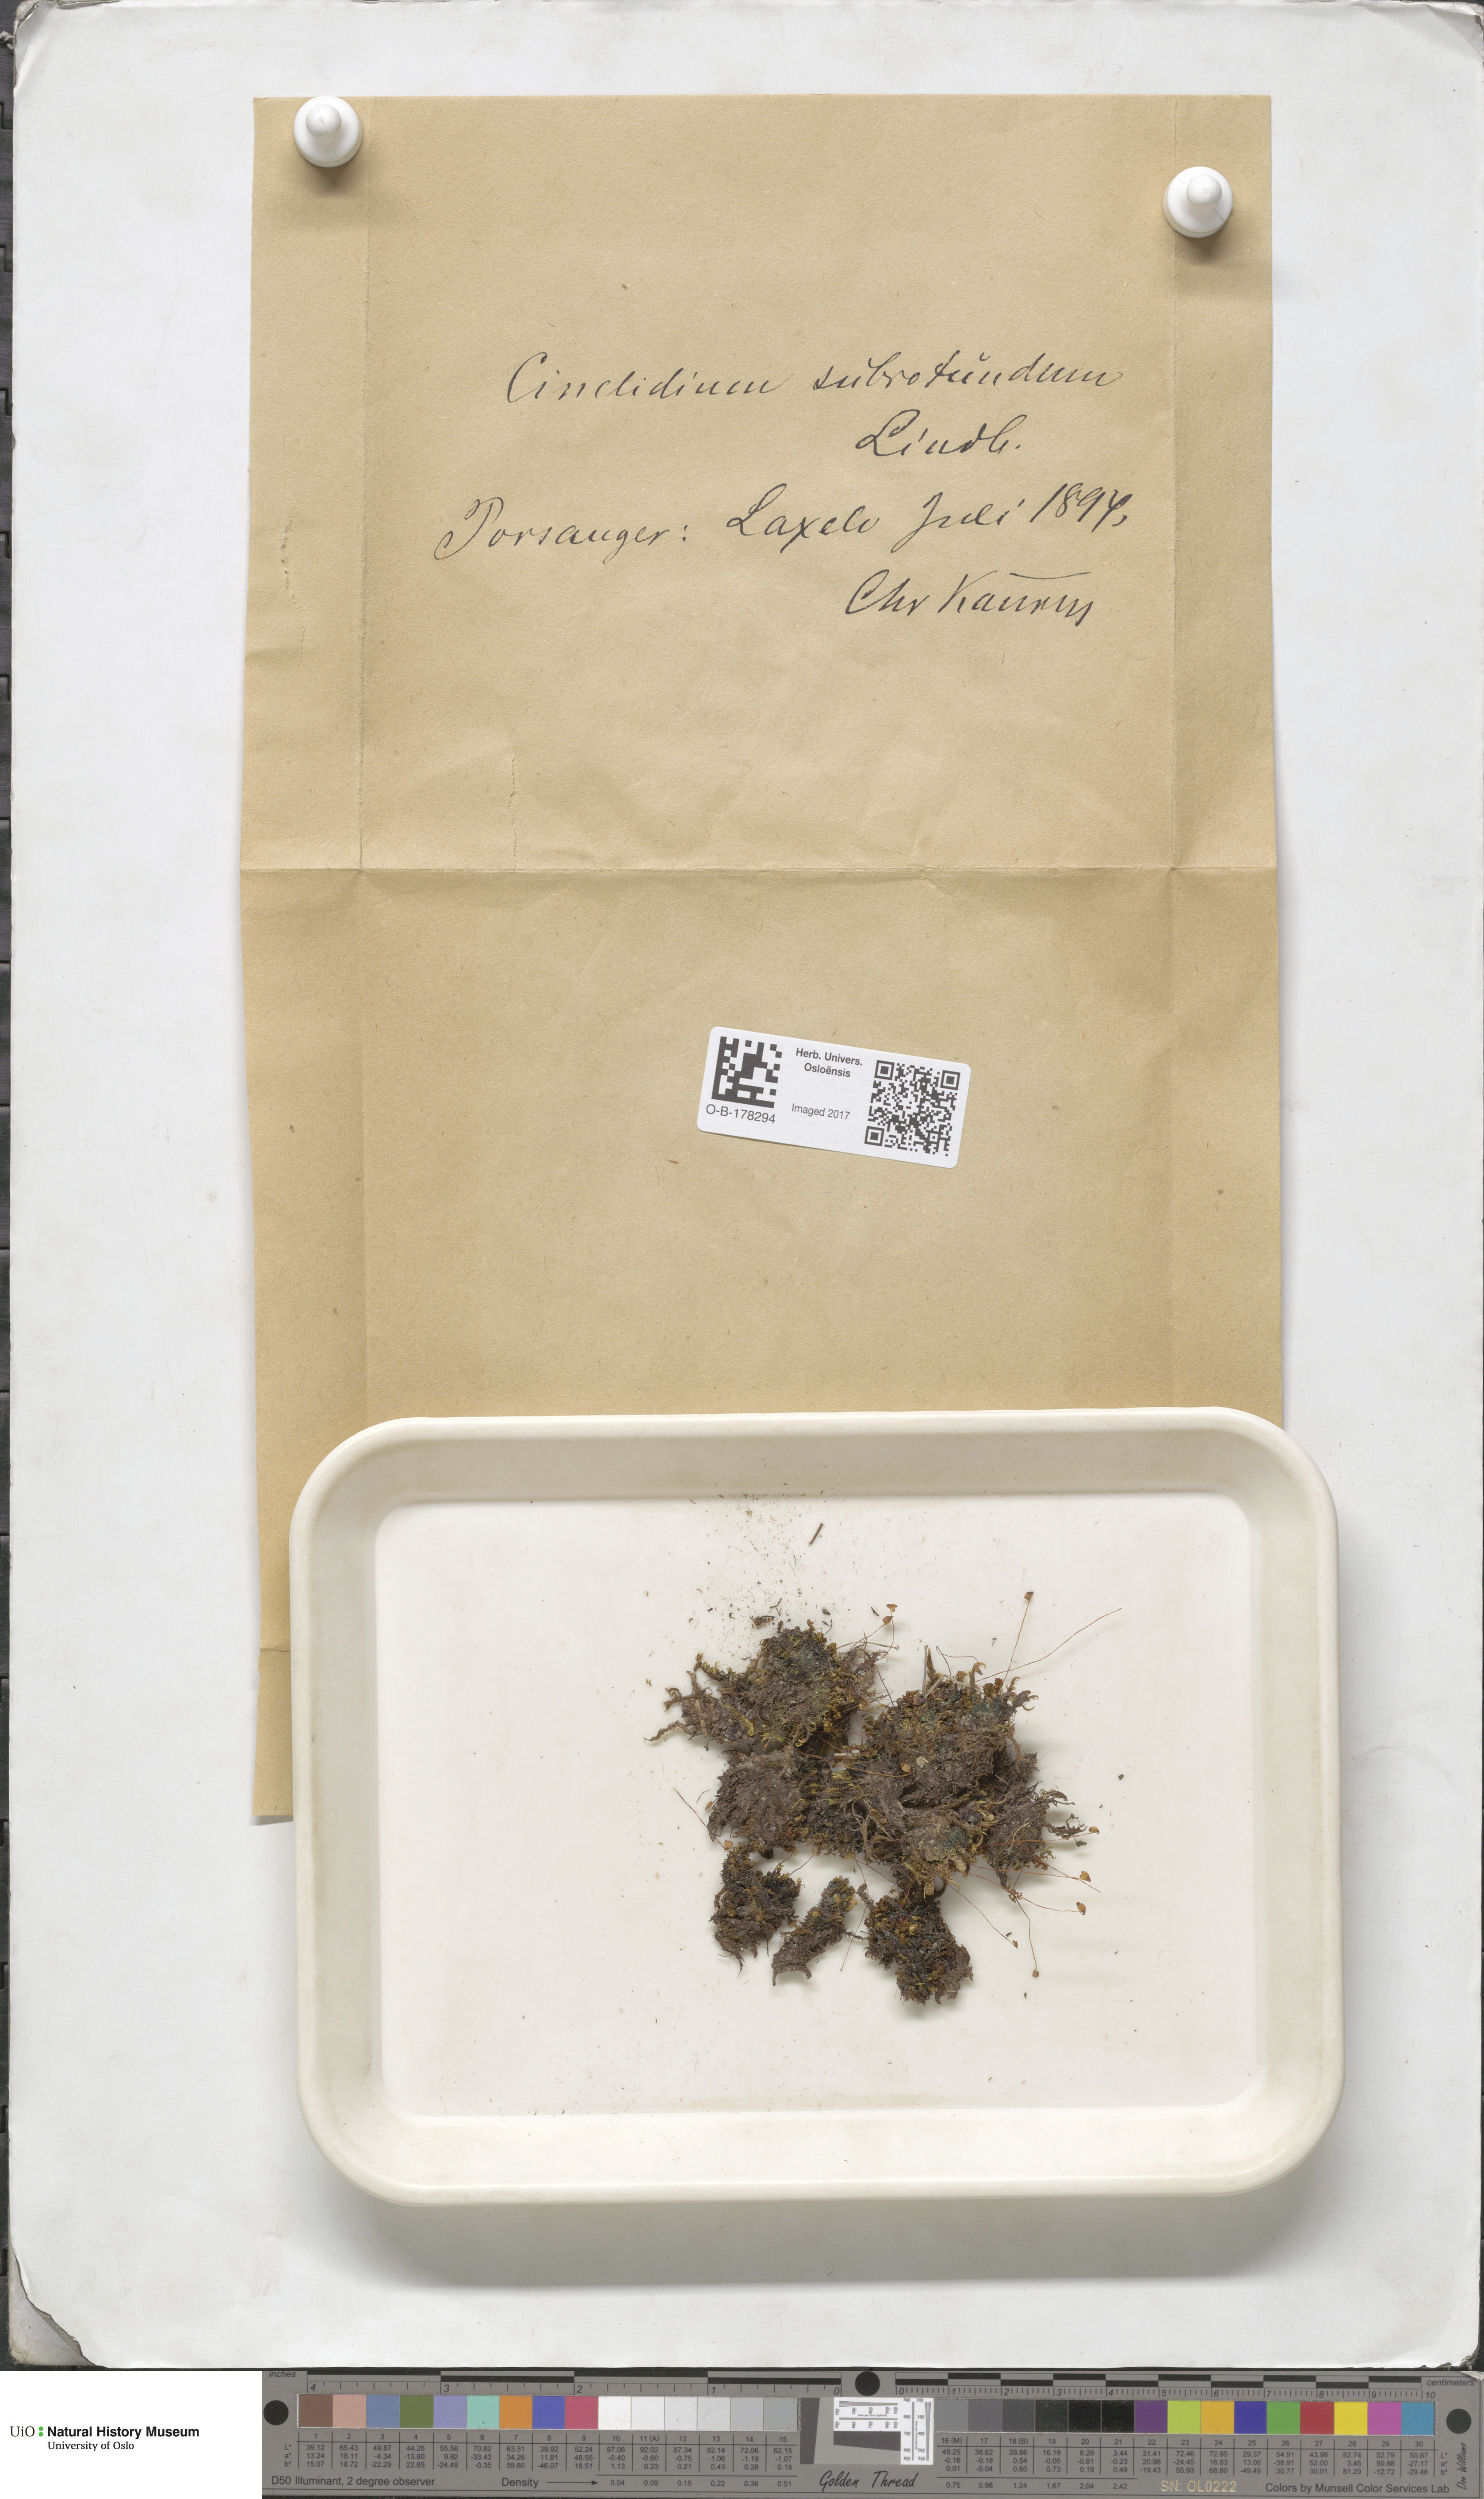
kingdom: Plantae
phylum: Bryophyta
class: Bryopsida
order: Bryales
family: Mniaceae
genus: Cinclidium
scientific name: Cinclidium subrotundum
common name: Ovate cupola moss
